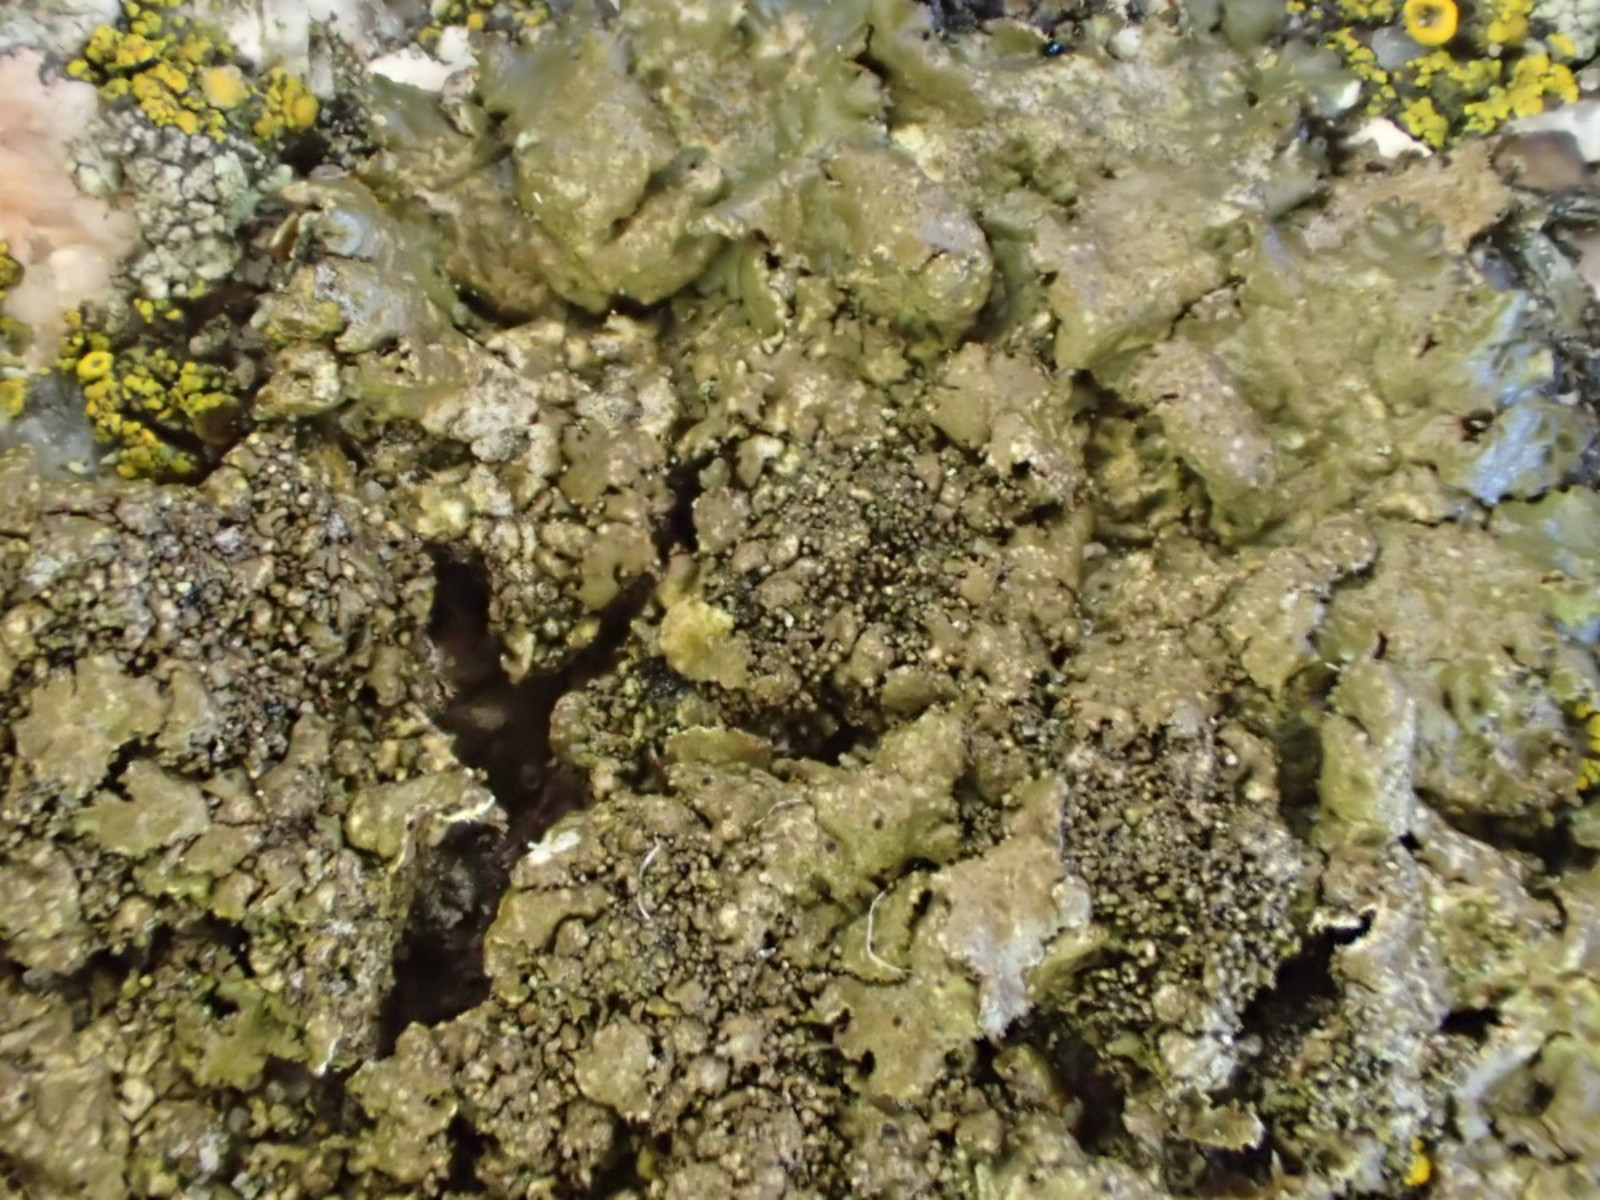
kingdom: Fungi
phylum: Ascomycota
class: Lecanoromycetes
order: Lecanorales
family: Parmeliaceae
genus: Melanelixia
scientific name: Melanelixia glabratula
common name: glinsende skållav
